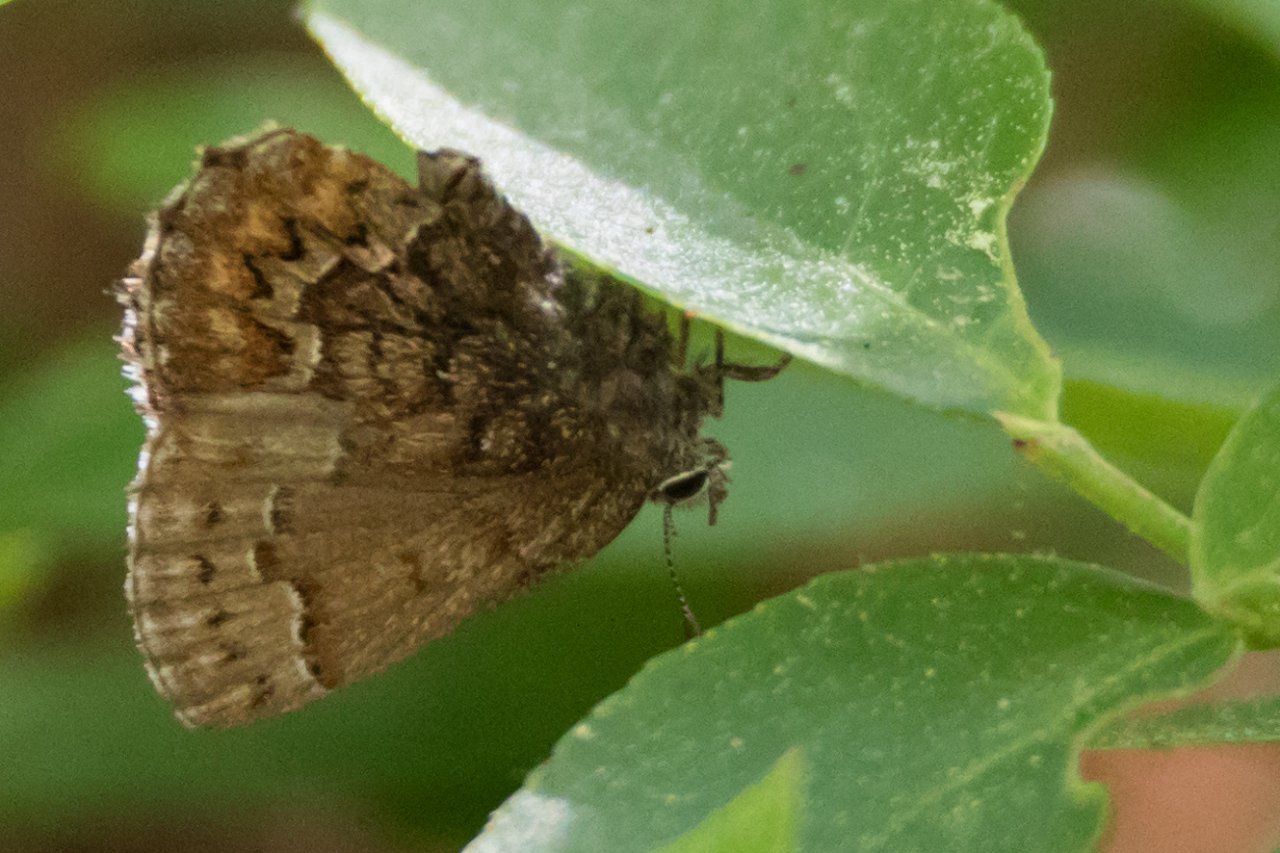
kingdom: Animalia
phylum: Arthropoda
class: Insecta
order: Lepidoptera
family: Lycaenidae
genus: Incisalia
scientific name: Incisalia niphon
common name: Eastern Pine Elfin
